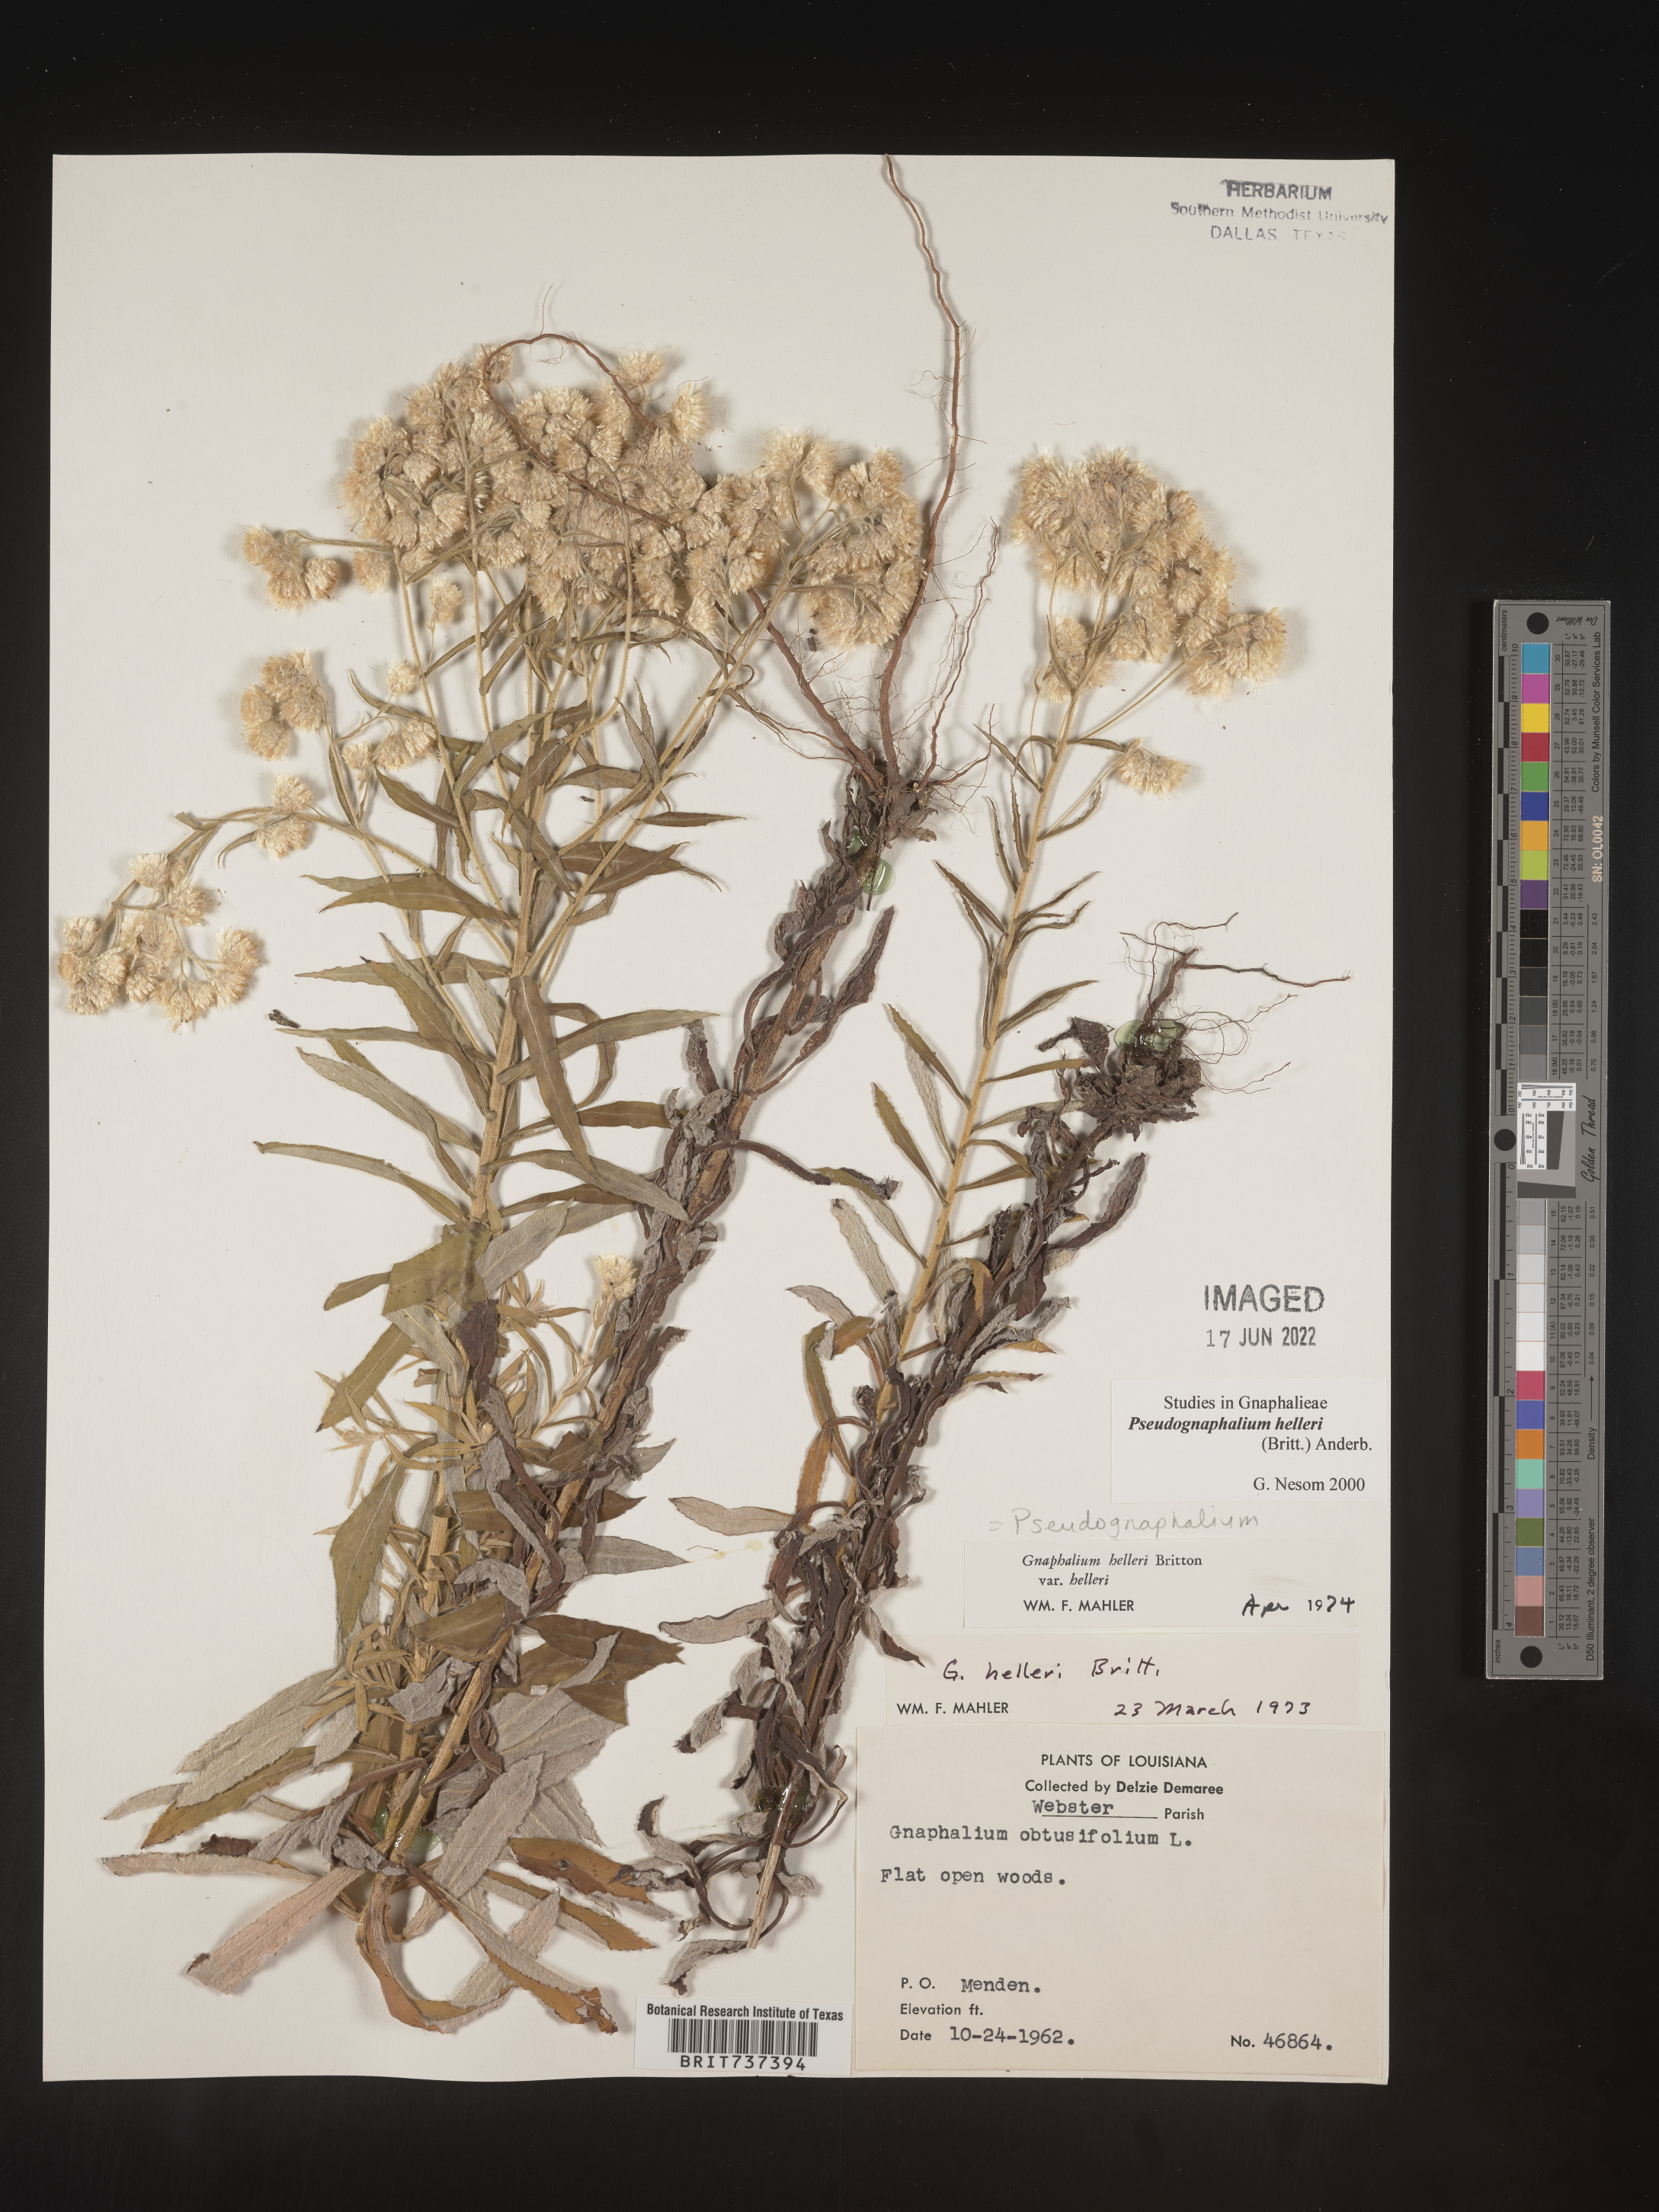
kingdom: Plantae
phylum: Tracheophyta
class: Magnoliopsida
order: Asterales
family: Asteraceae
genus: Pseudognaphalium
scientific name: Pseudognaphalium helleri
